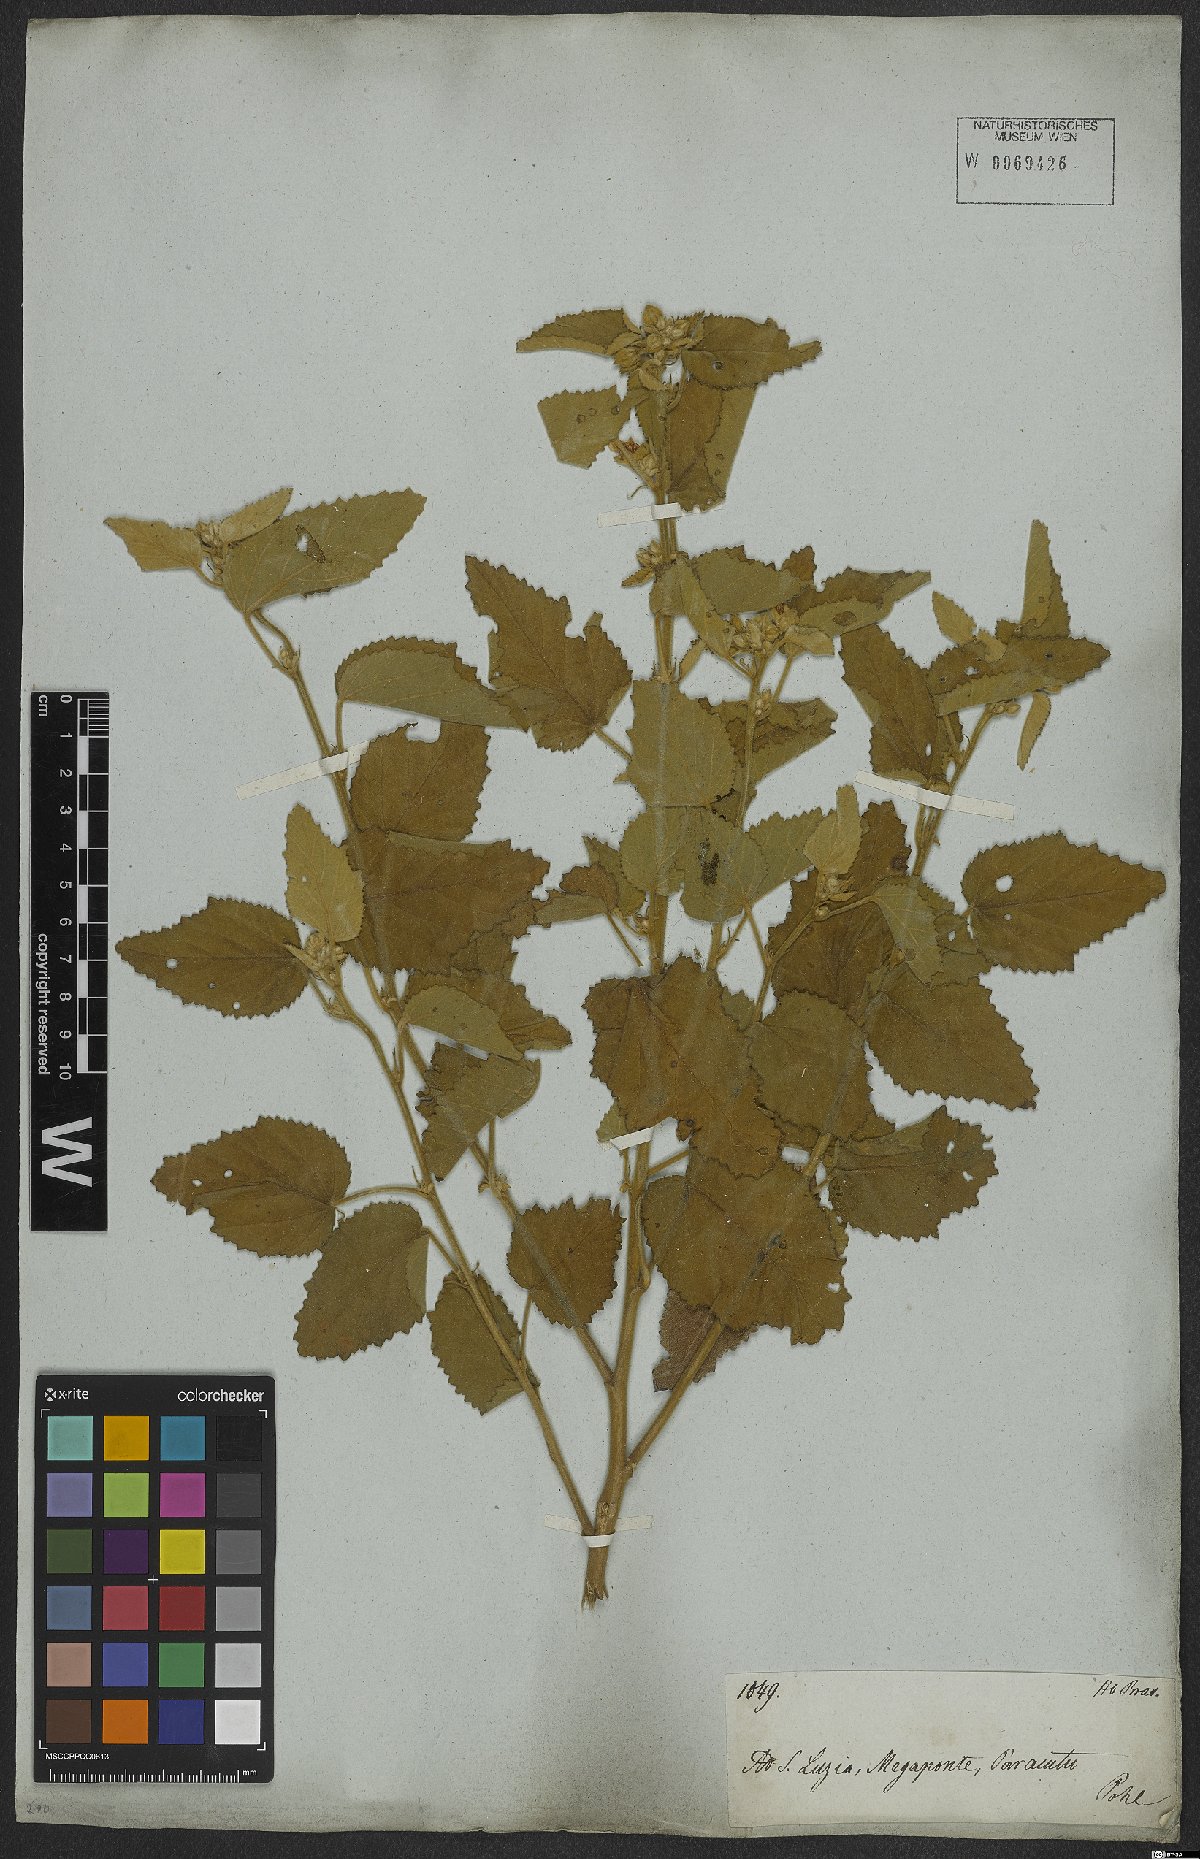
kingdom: Plantae
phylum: Tracheophyta
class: Magnoliopsida
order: Malvales
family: Malvaceae
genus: Sida
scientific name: Sida cordifolia
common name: Ilima
